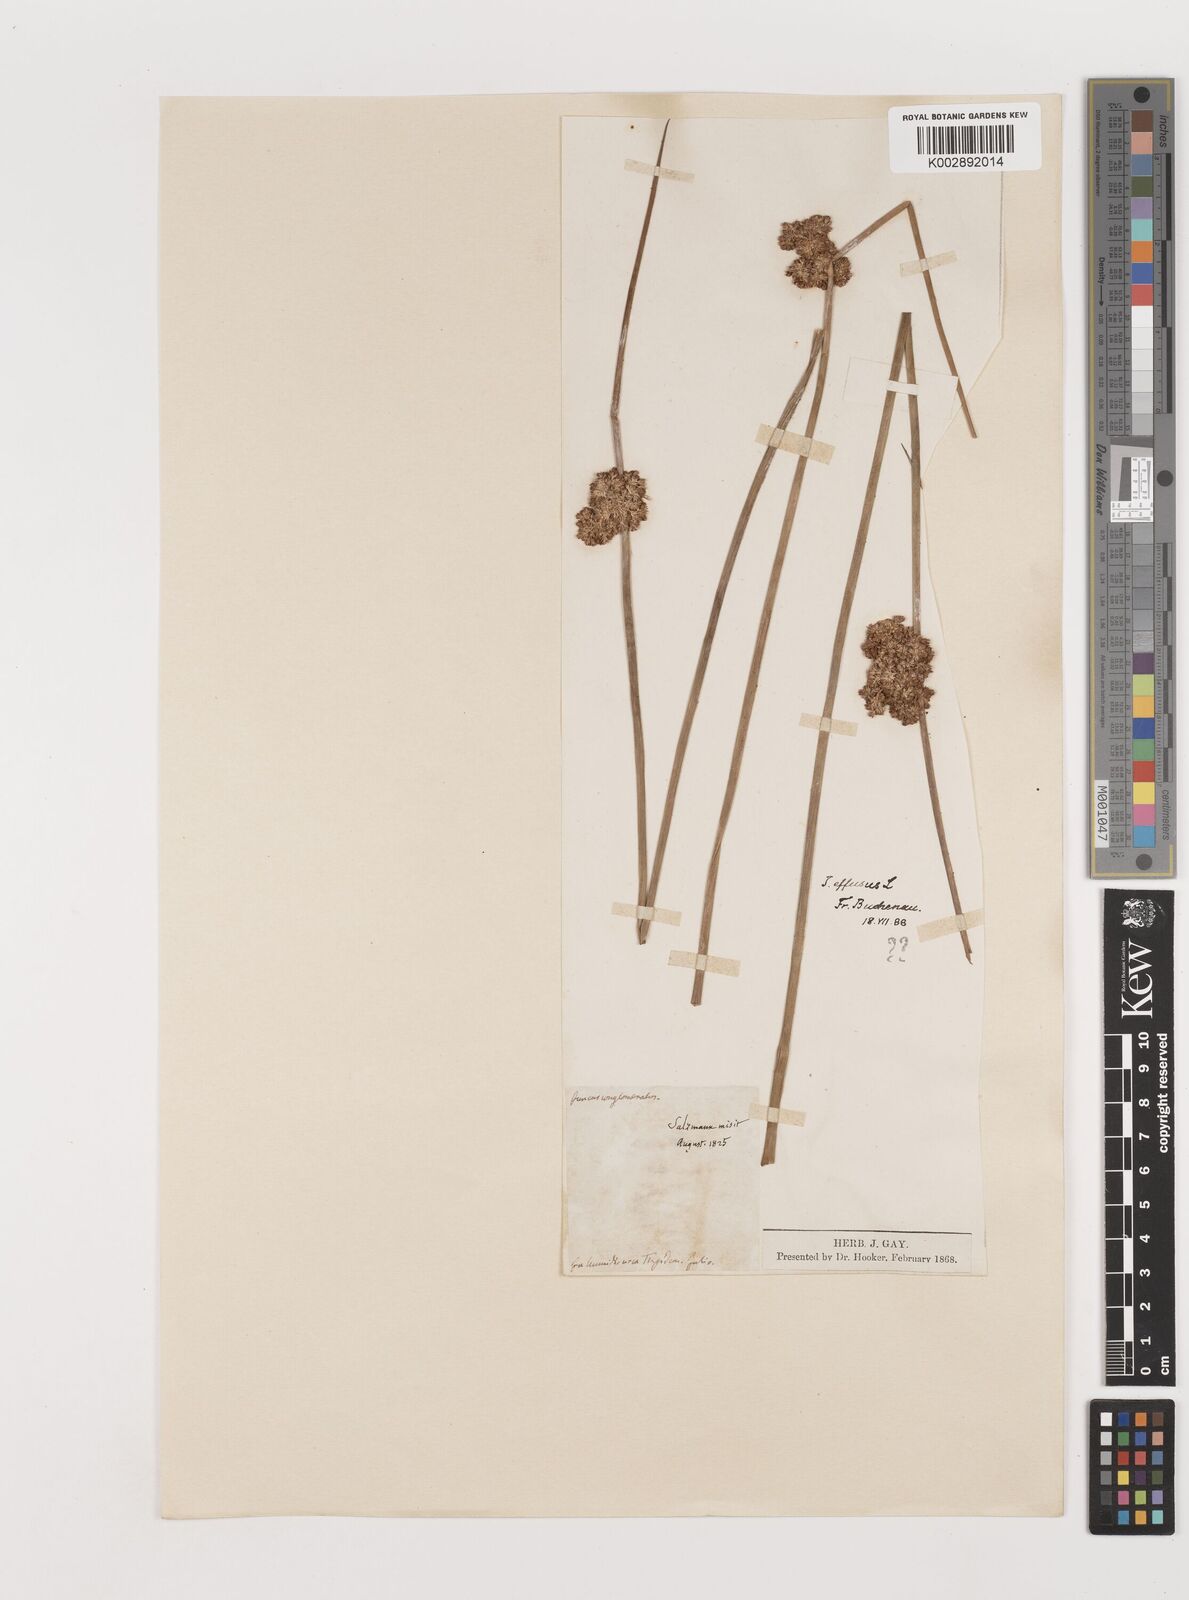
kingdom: Plantae
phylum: Tracheophyta
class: Liliopsida
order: Poales
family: Juncaceae
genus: Juncus
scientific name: Juncus effusus
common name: Soft rush
